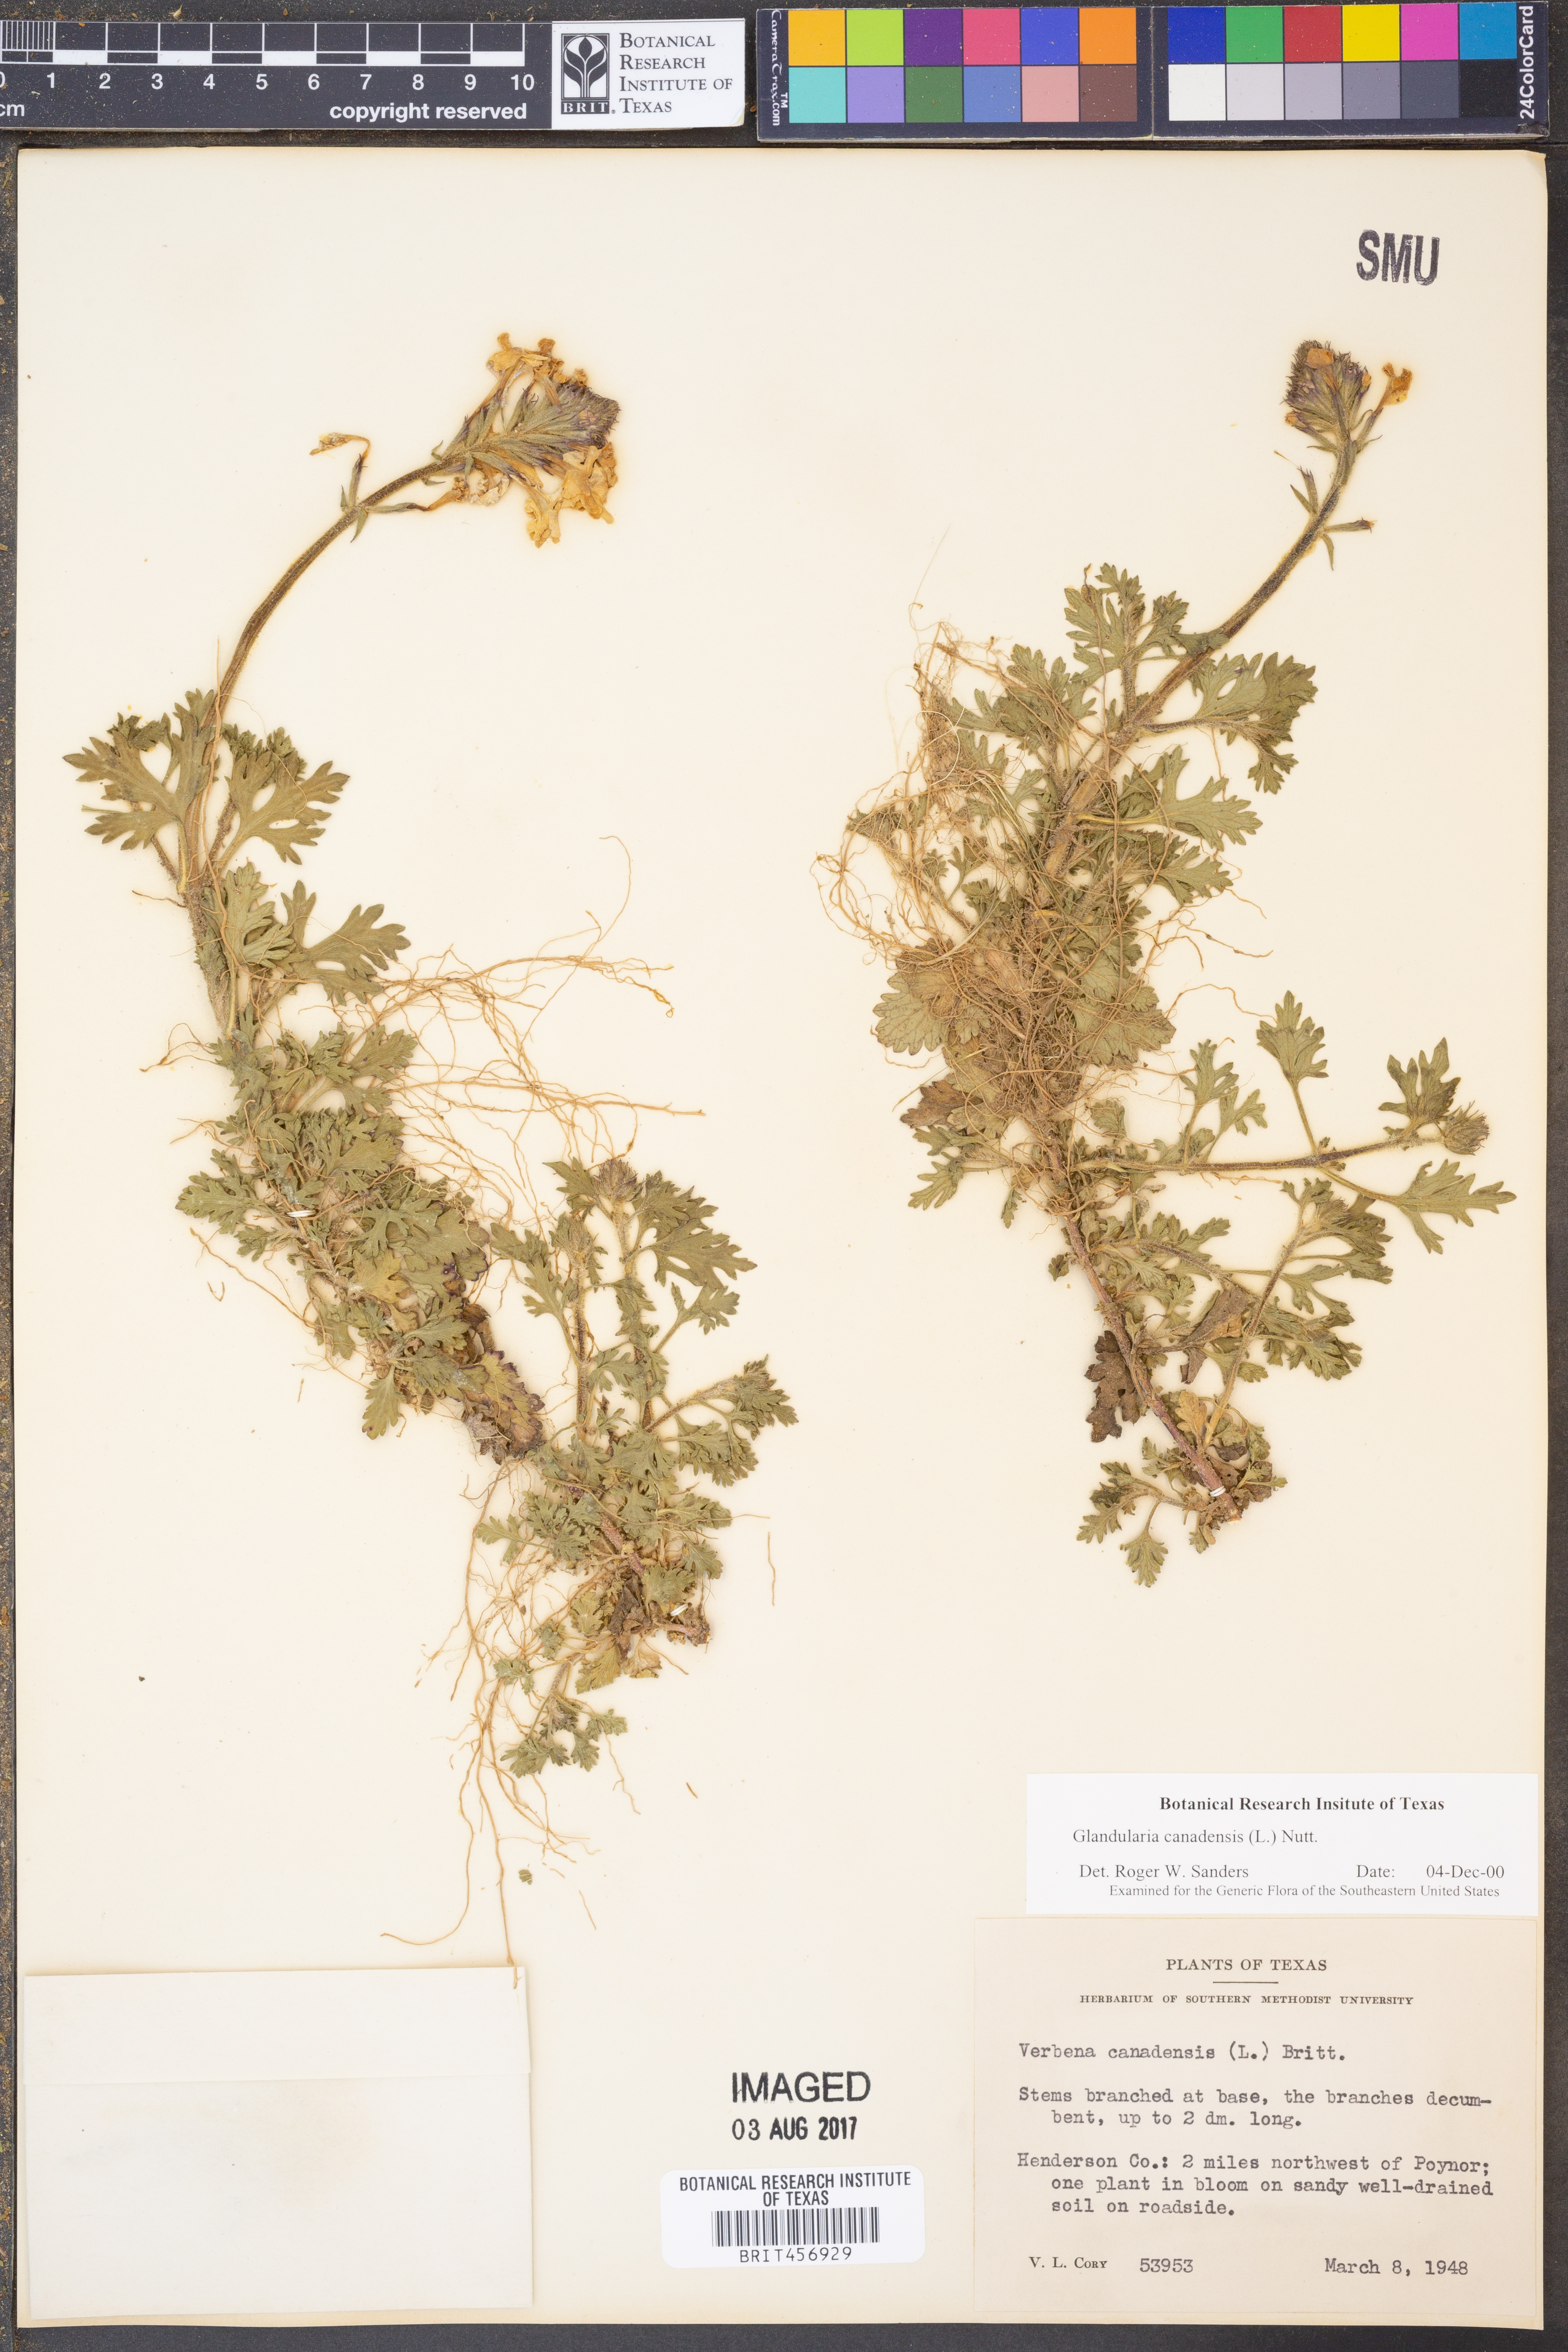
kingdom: Plantae
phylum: Tracheophyta
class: Magnoliopsida
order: Lamiales
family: Verbenaceae
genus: Verbena
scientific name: Verbena canadensis
